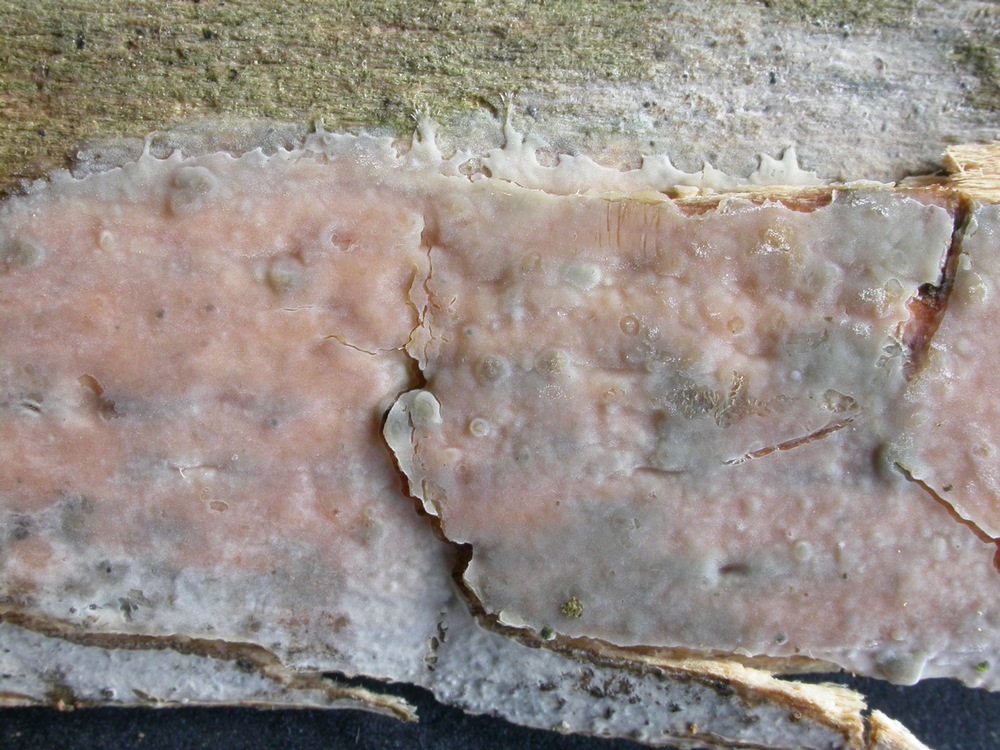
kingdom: Fungi
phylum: Basidiomycota
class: Agaricomycetes
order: Agaricales
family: Radulomycetaceae
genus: Radulomyces
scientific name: Radulomyces confluens
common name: glat naftalinskind
